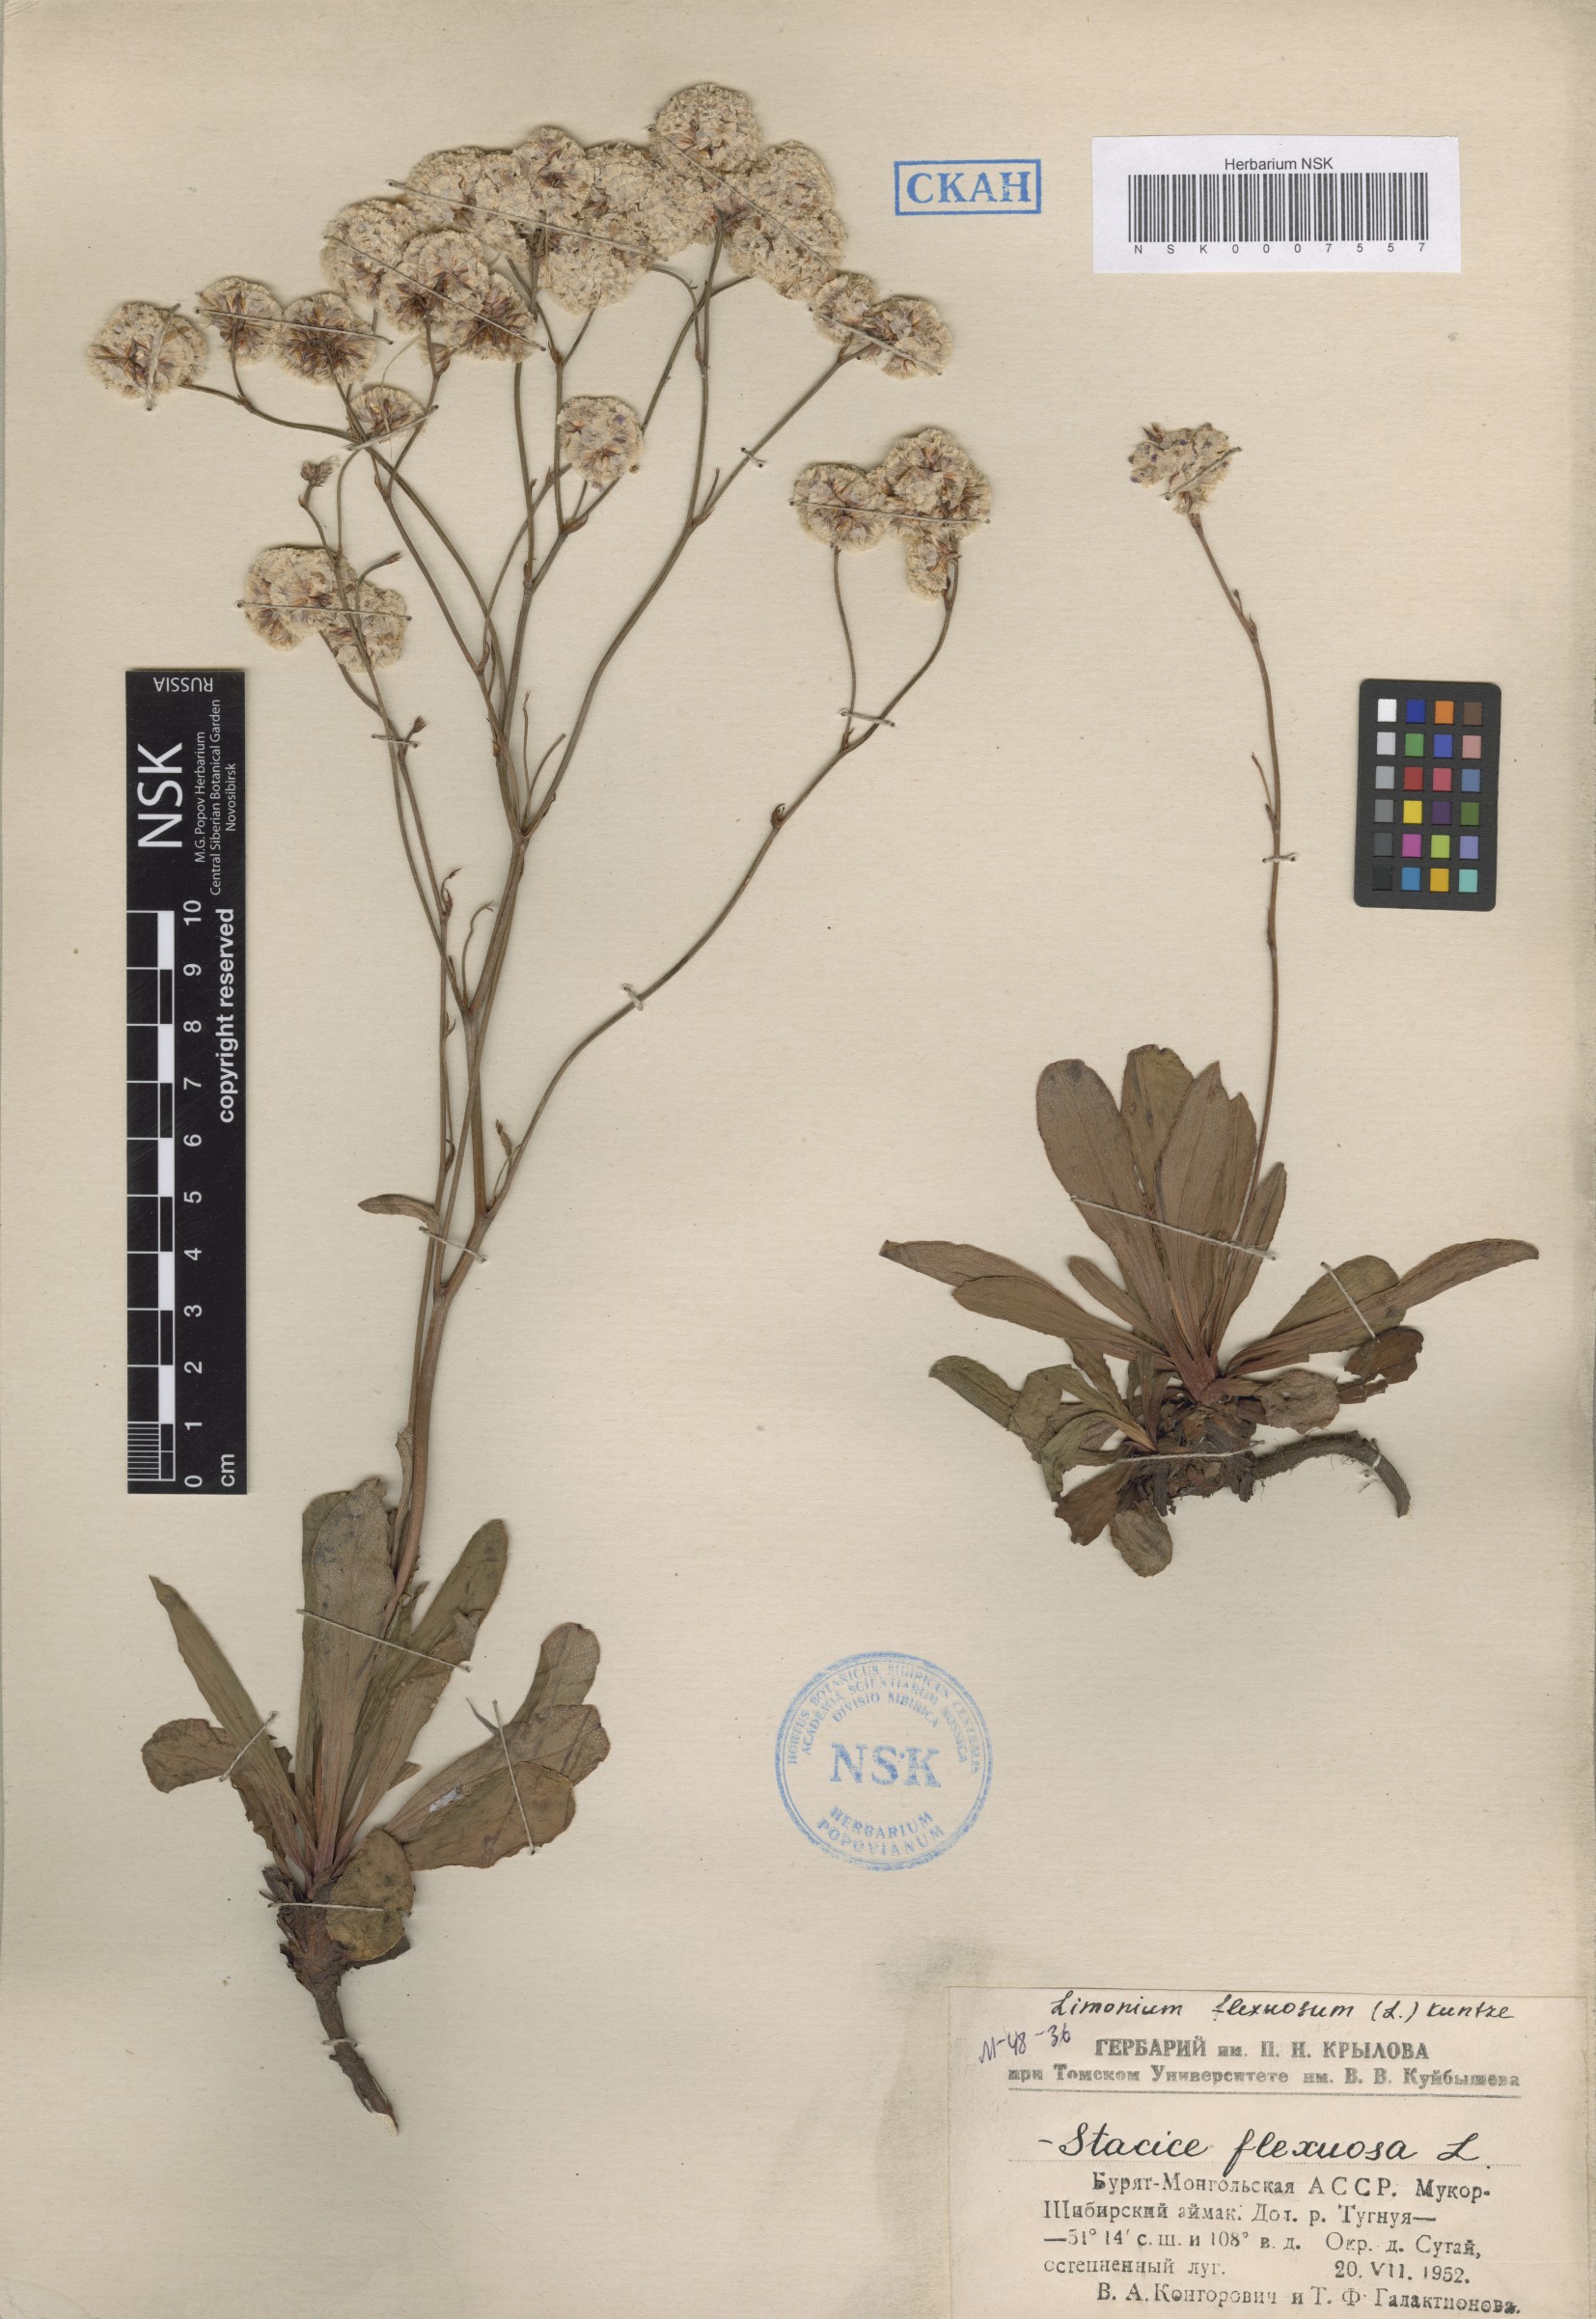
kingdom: Plantae
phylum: Tracheophyta
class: Magnoliopsida
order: Caryophyllales
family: Plumbaginaceae
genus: Limonium
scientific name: Limonium flexuosum
